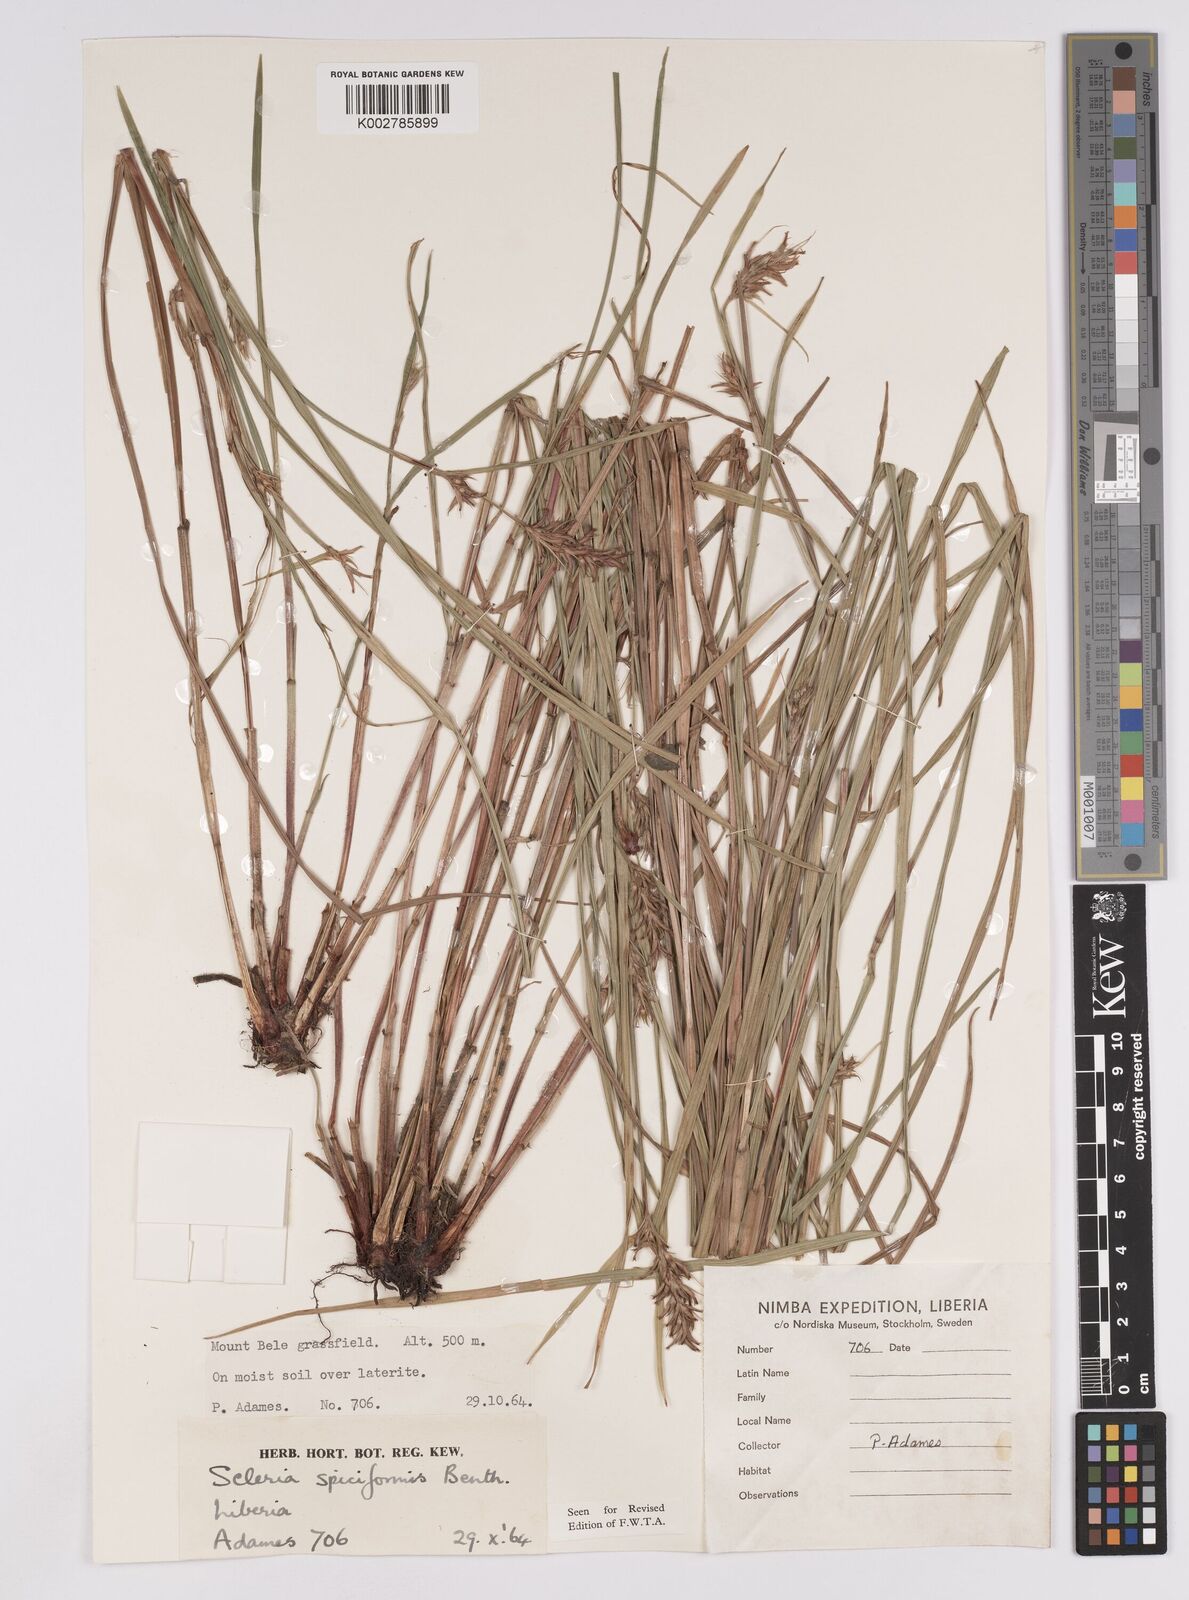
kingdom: Plantae
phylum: Tracheophyta
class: Liliopsida
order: Poales
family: Cyperaceae
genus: Scleria
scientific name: Scleria spiciformis
